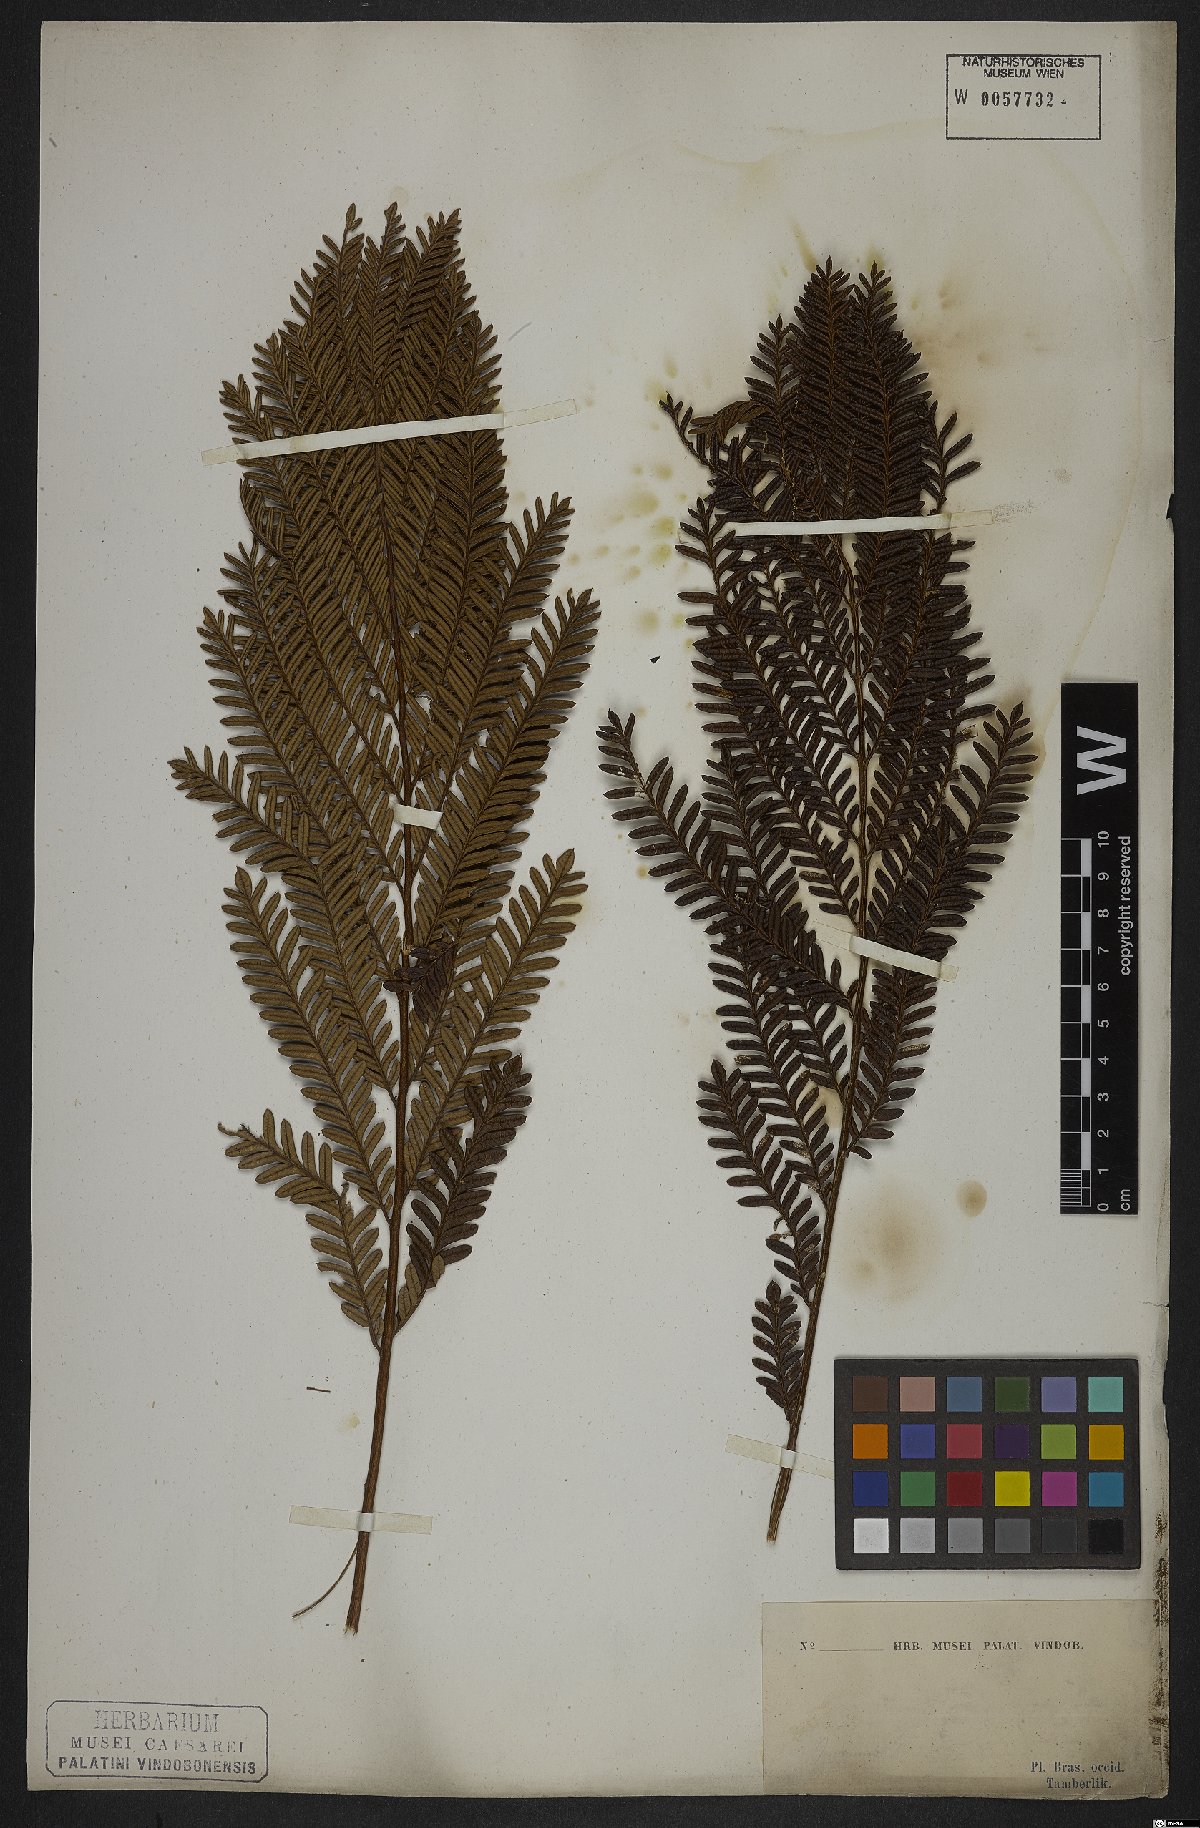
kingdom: Plantae
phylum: Tracheophyta
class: Magnoliopsida
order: Lamiales
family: Bignoniaceae
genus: Jacaranda
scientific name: Jacaranda decurrens
